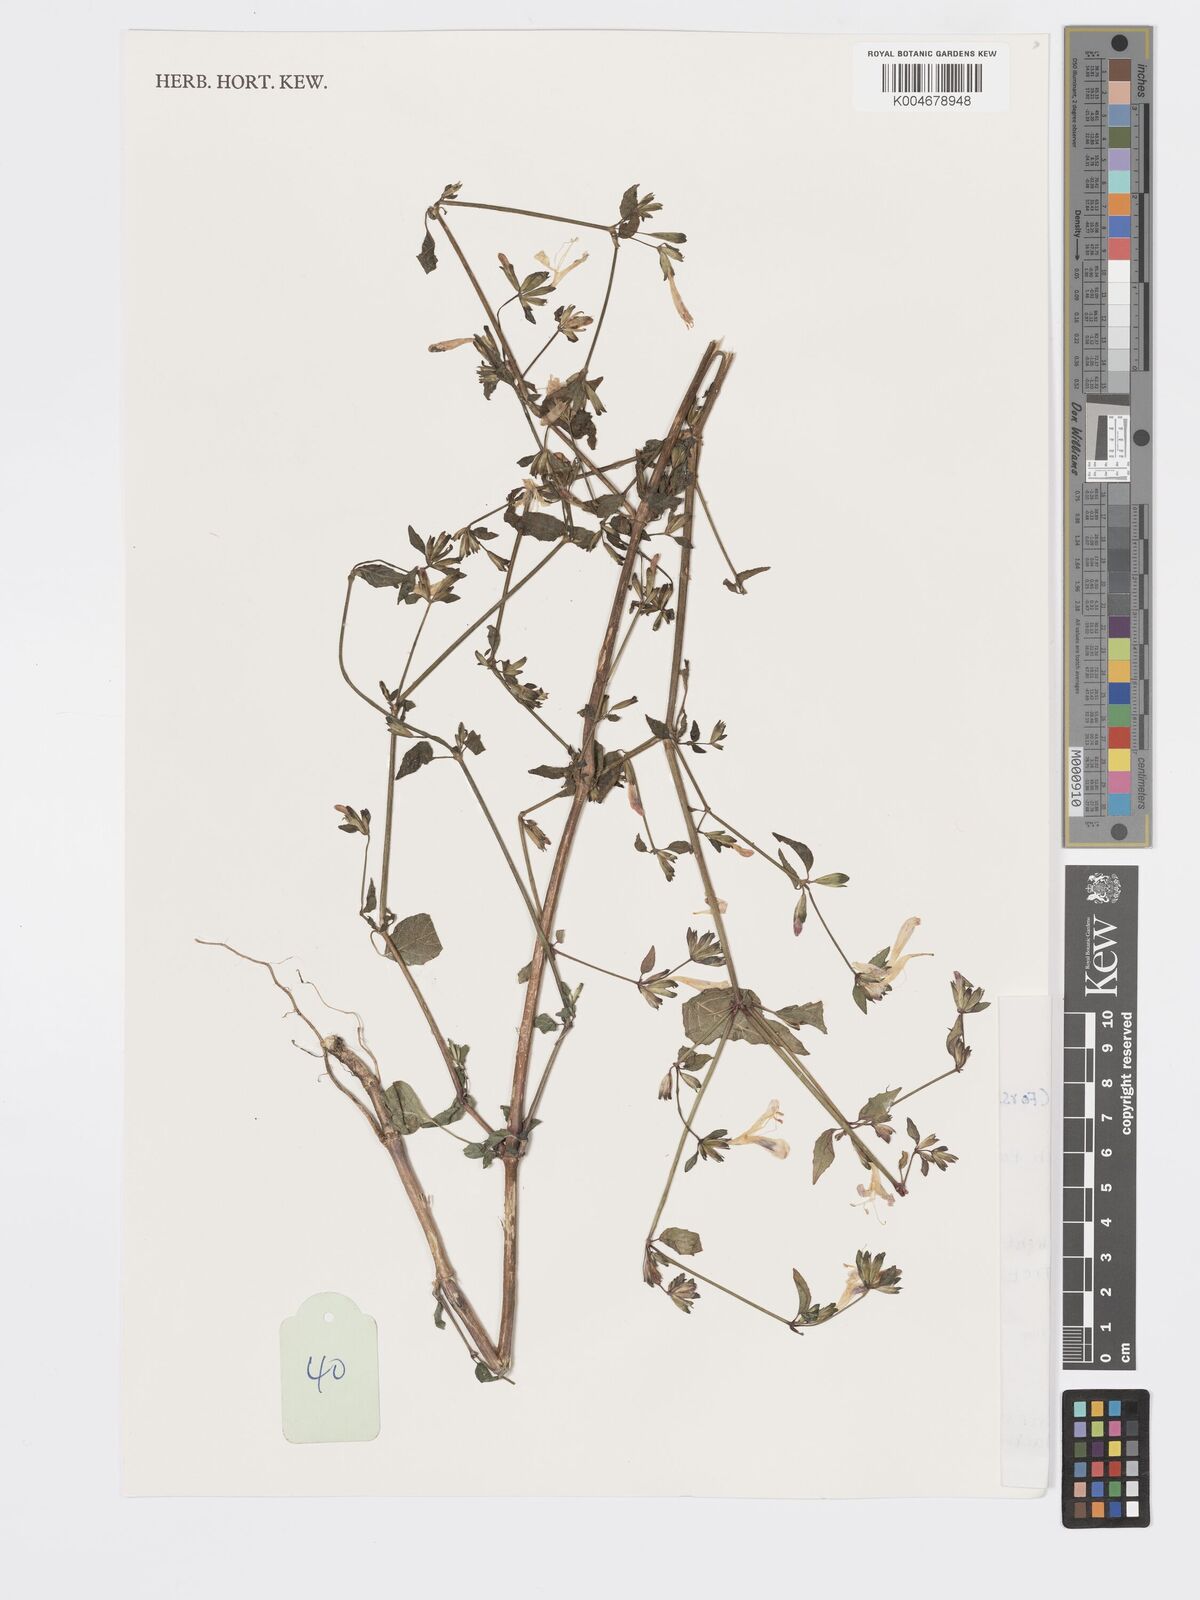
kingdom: Plantae
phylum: Tracheophyta
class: Magnoliopsida
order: Lamiales
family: Acanthaceae
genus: Hypoestes
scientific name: Hypoestes triflora
